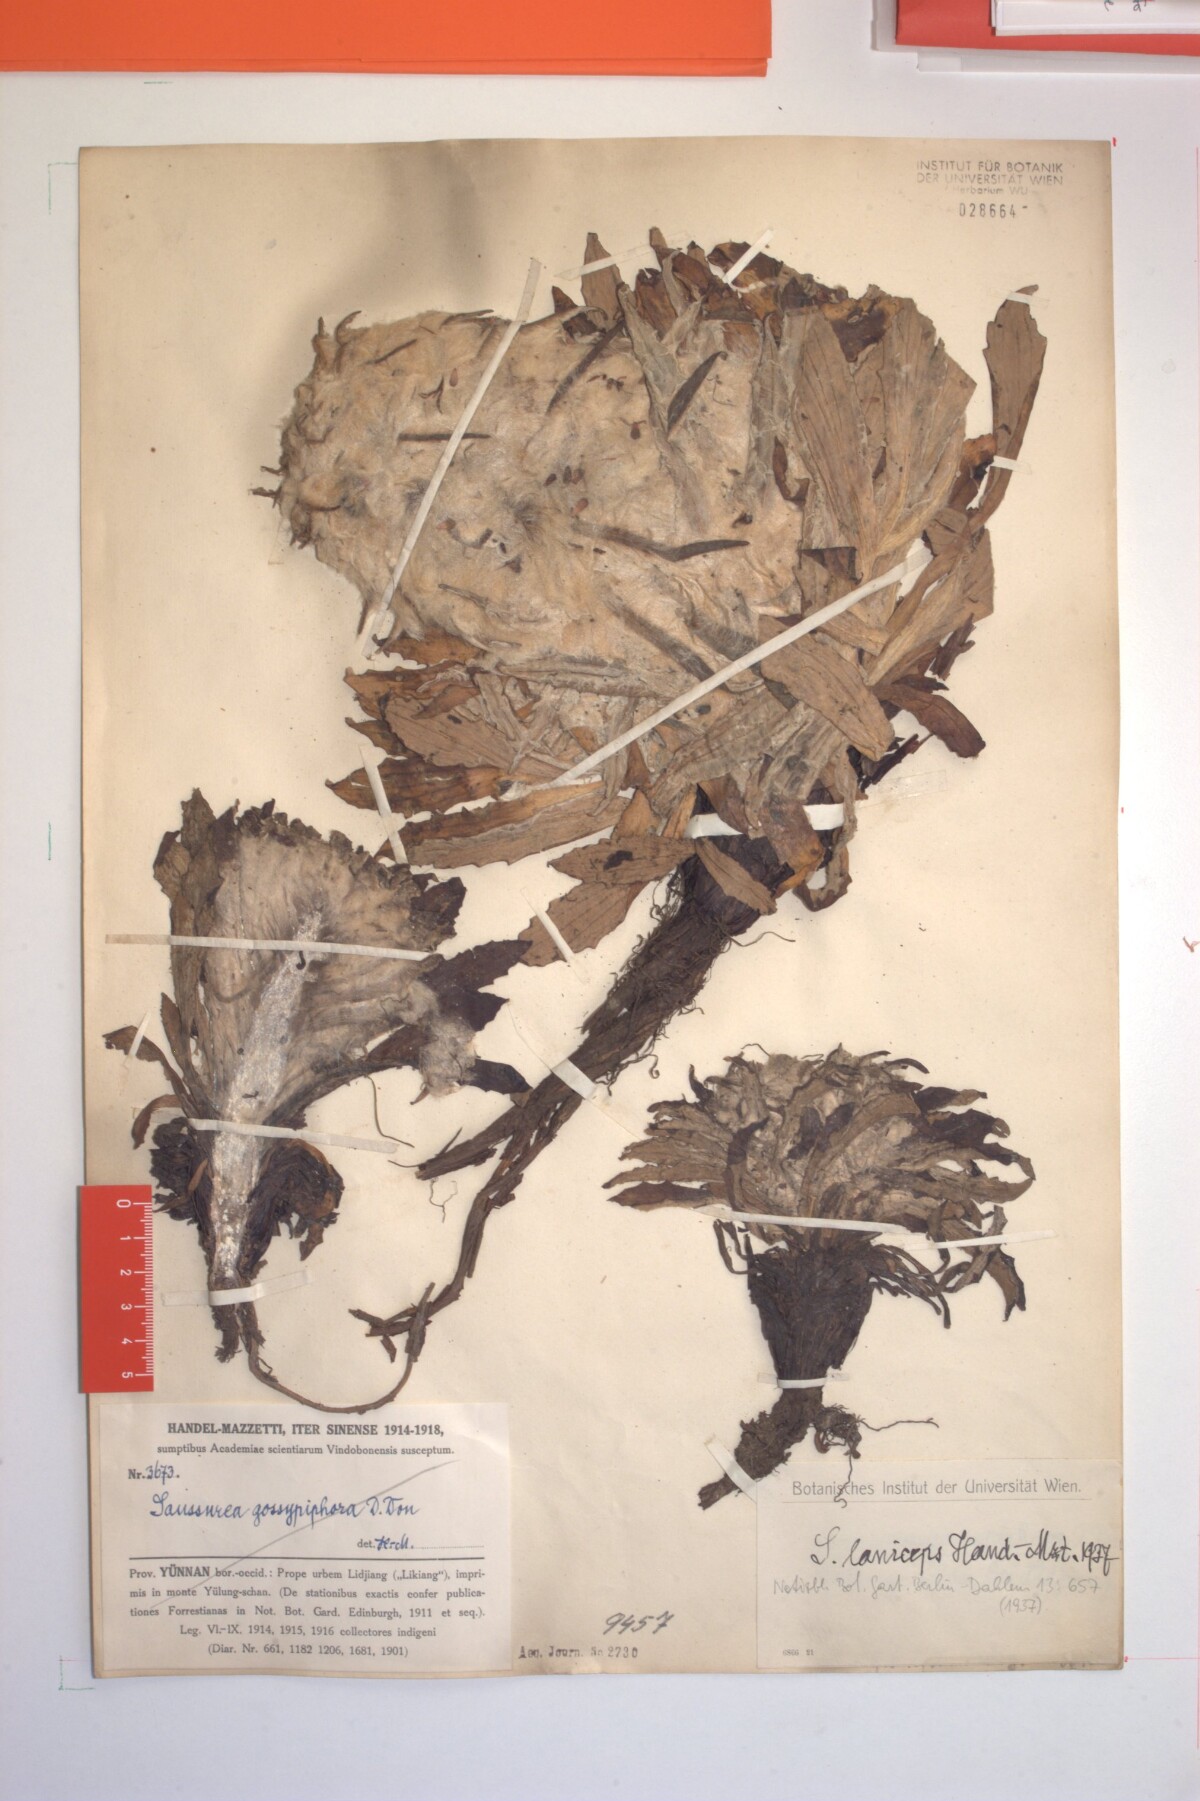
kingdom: Plantae
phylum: Tracheophyta
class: Magnoliopsida
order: Asterales
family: Asteraceae
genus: Saussurea
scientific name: Saussurea laniceps
